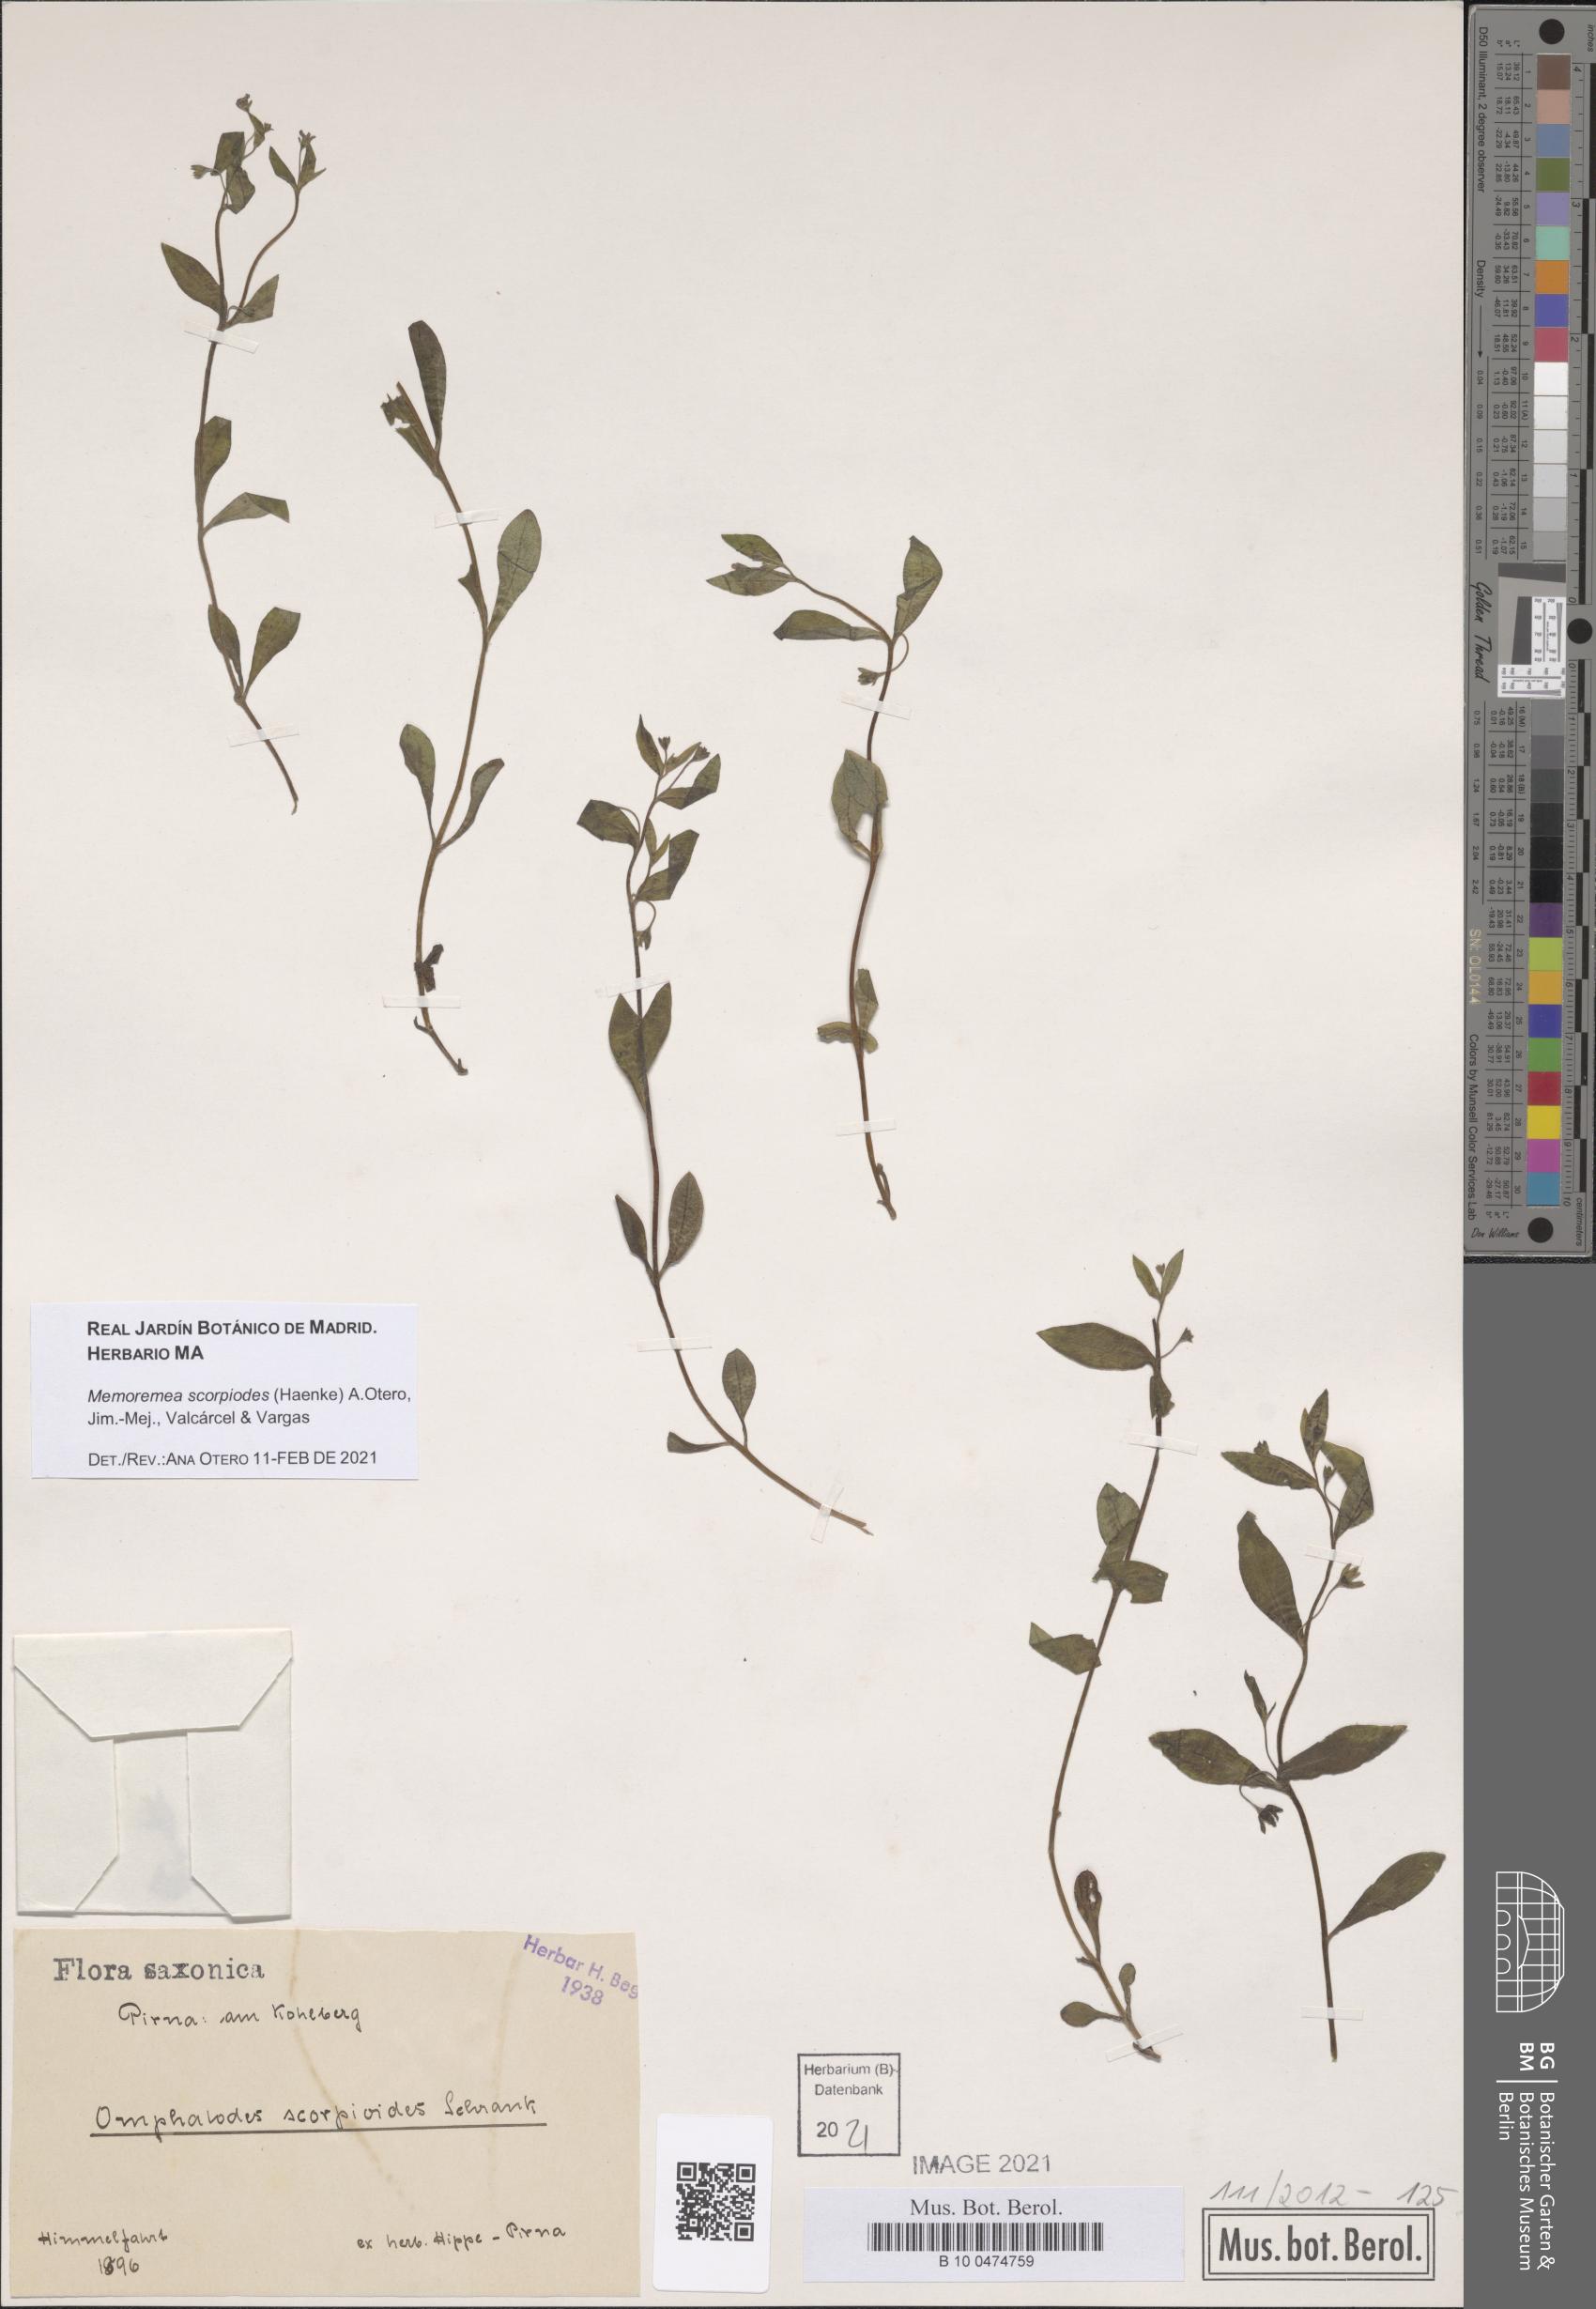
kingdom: Plantae
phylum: Tracheophyta
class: Magnoliopsida
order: Boraginales
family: Boraginaceae
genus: Memoremea
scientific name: Memoremea scorpioides
